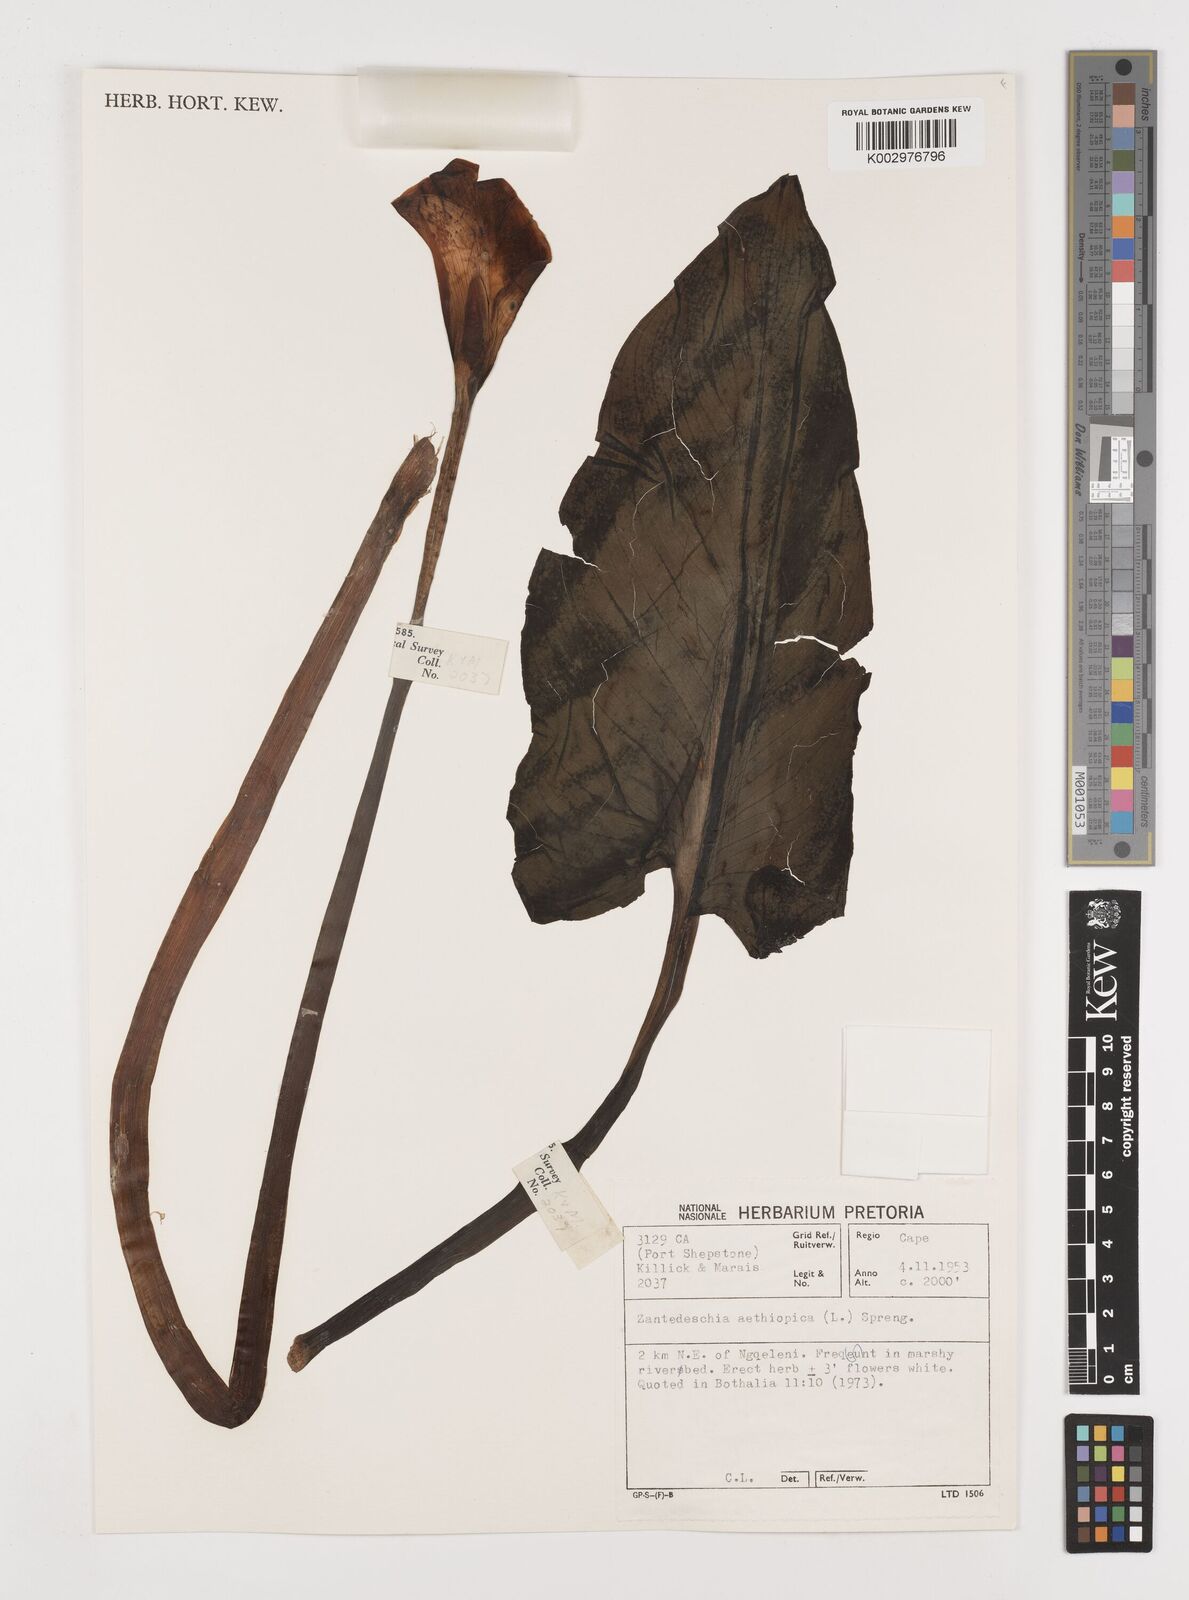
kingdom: Plantae
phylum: Tracheophyta
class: Liliopsida
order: Alismatales
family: Araceae
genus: Zantedeschia
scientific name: Zantedeschia aethiopica
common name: Altar-lily
